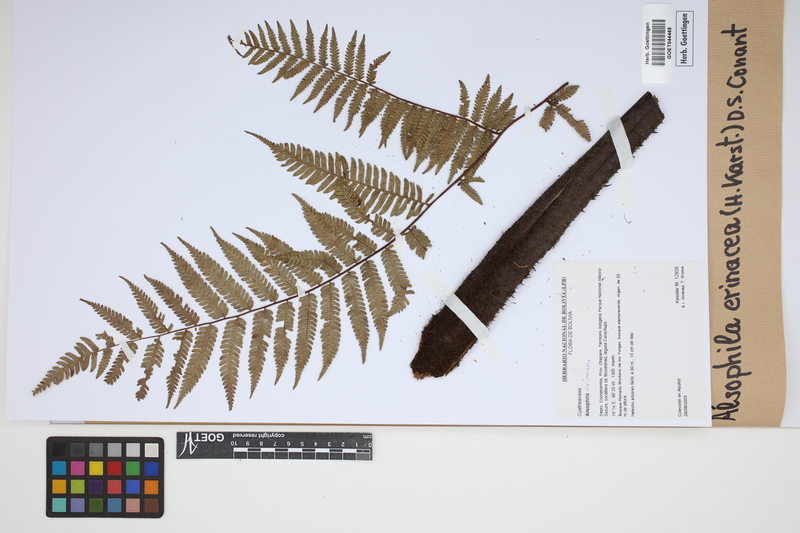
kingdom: Plantae
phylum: Tracheophyta
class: Polypodiopsida
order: Cyatheales
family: Cyatheaceae
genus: Alsophila
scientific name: Alsophila erinacea
